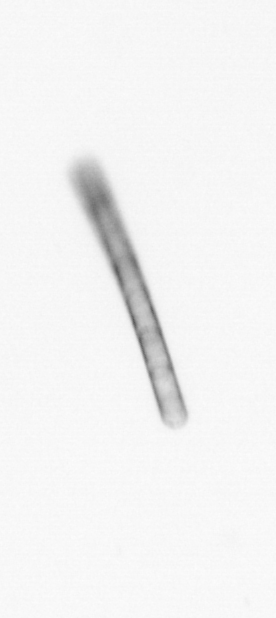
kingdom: Chromista
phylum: Ochrophyta
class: Bacillariophyceae
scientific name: Bacillariophyceae
